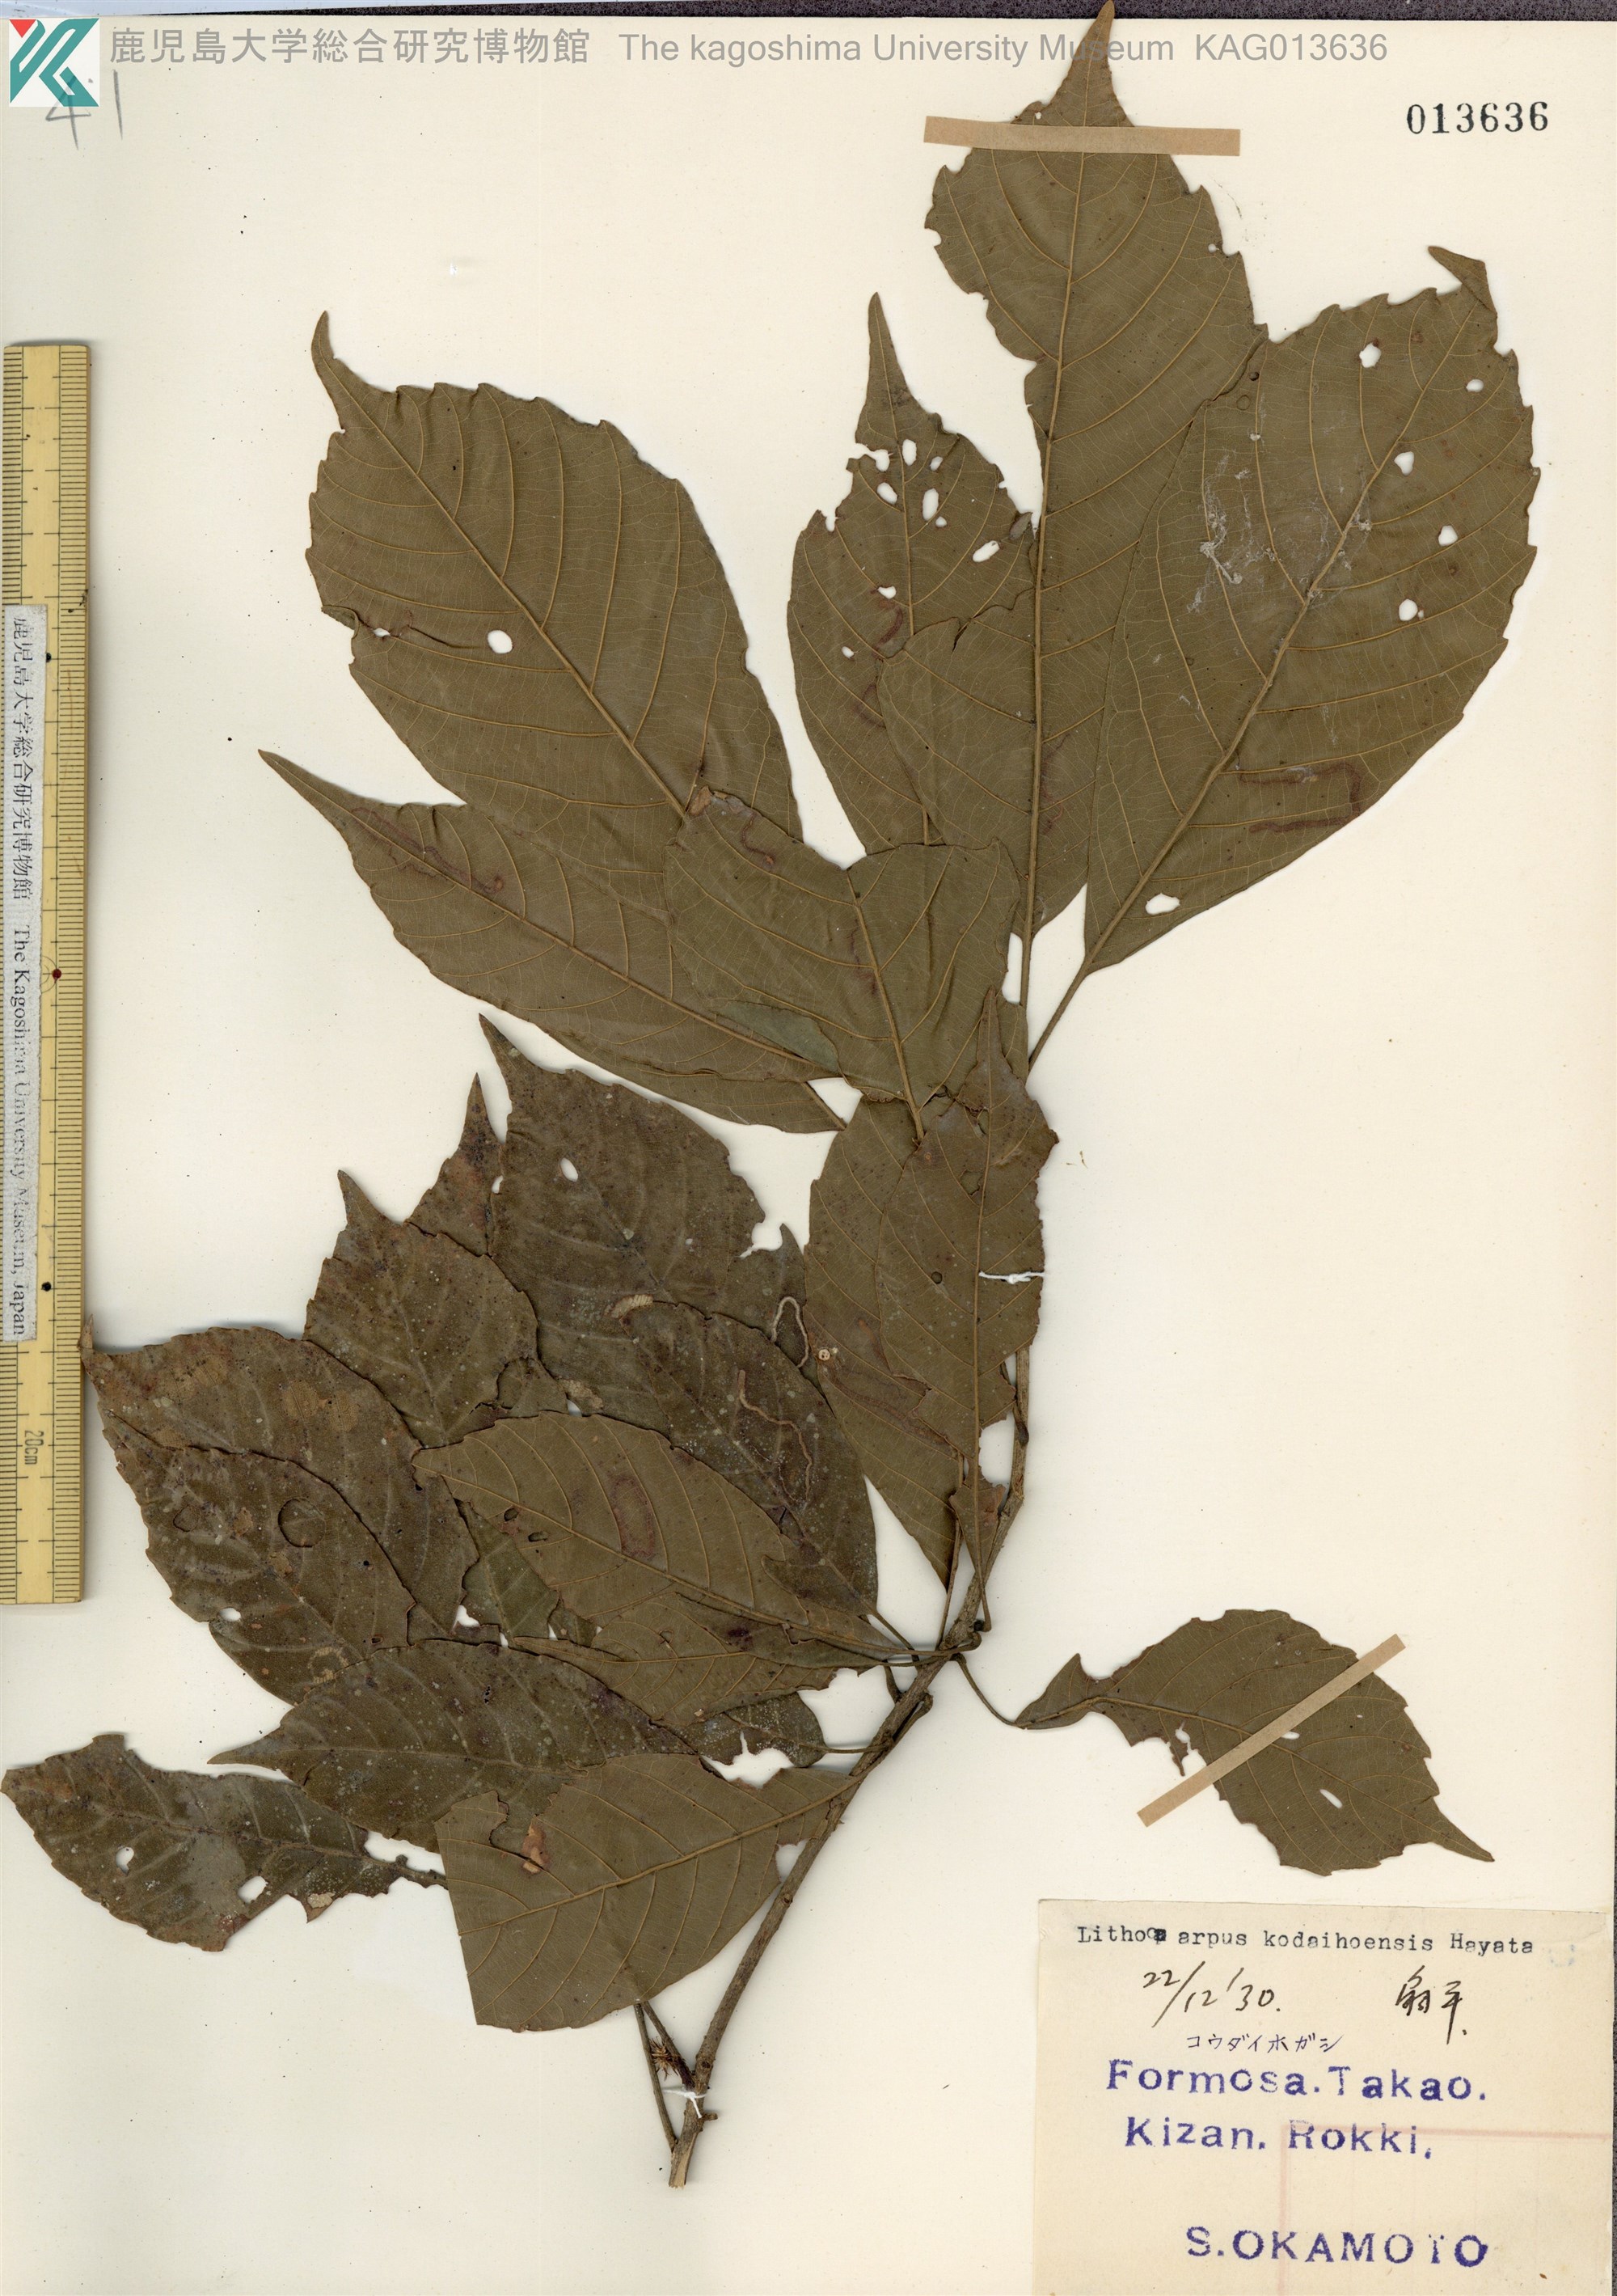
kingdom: Plantae
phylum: Tracheophyta
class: Magnoliopsida
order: Fagales
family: Fagaceae
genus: Lithocarpus
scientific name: Lithocarpus lepidocarpus
